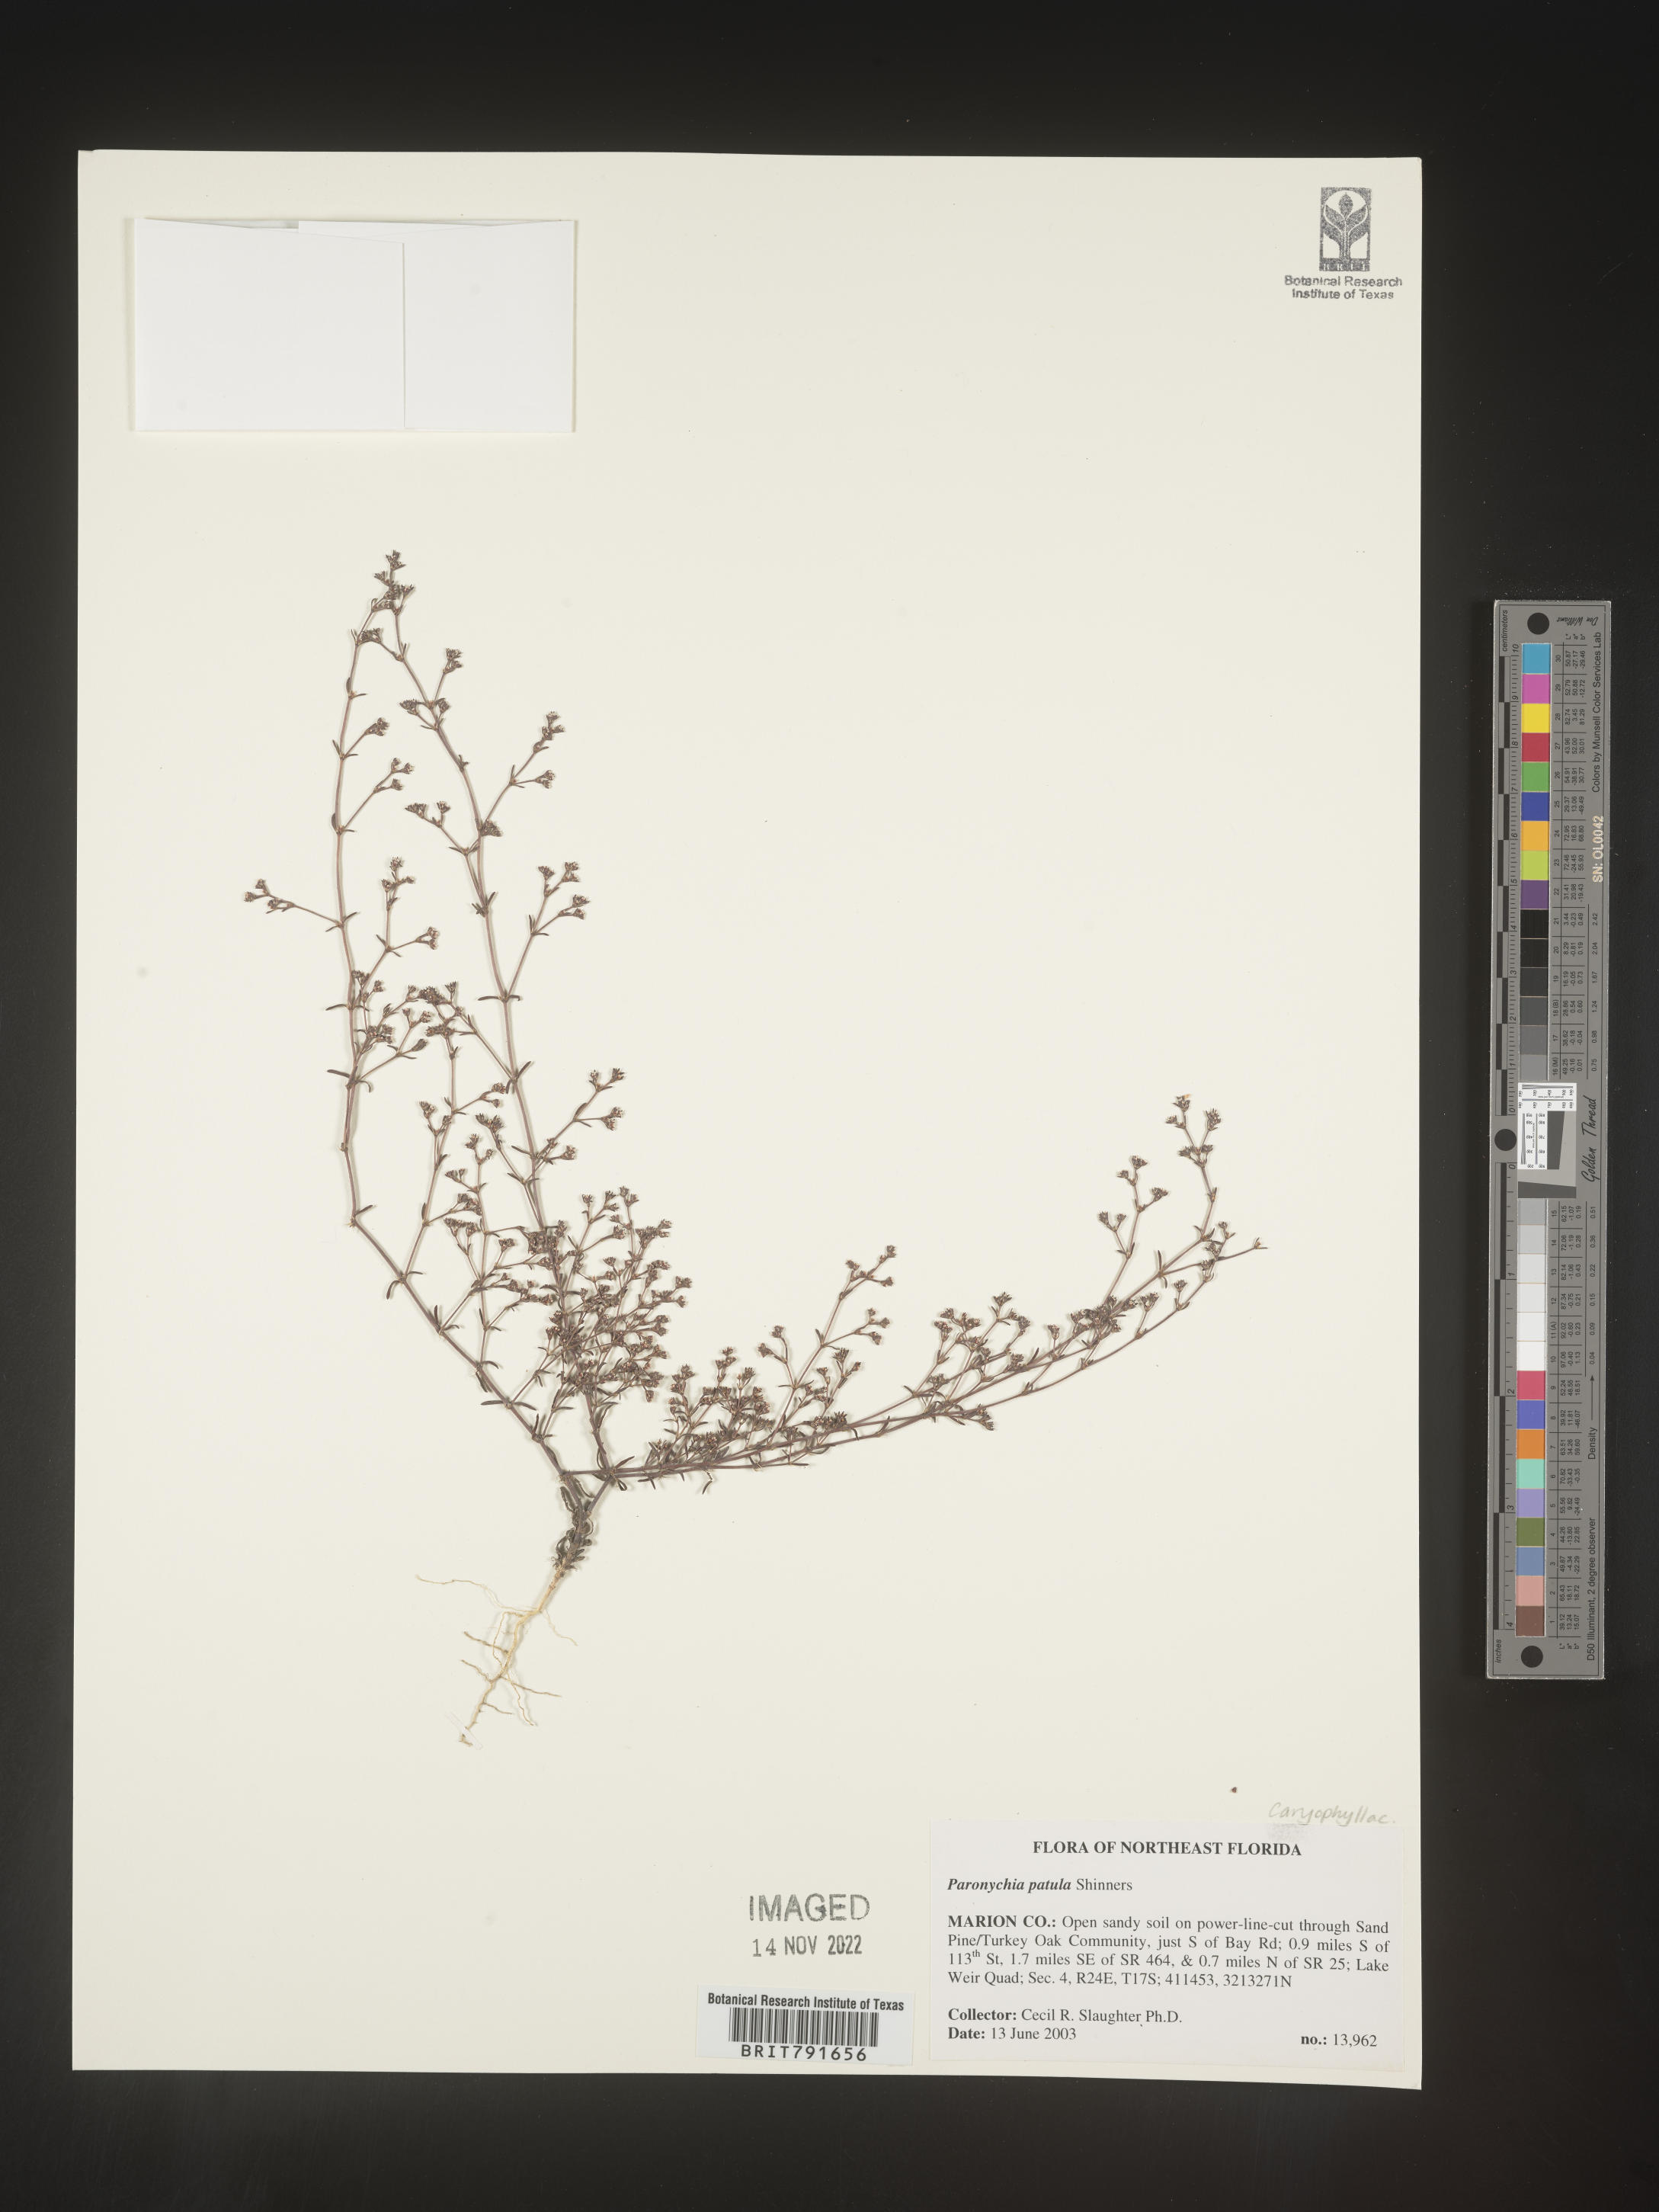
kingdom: Plantae
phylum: Tracheophyta
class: Magnoliopsida
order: Caryophyllales
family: Caryophyllaceae
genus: Paronychia
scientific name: Paronychia patula
